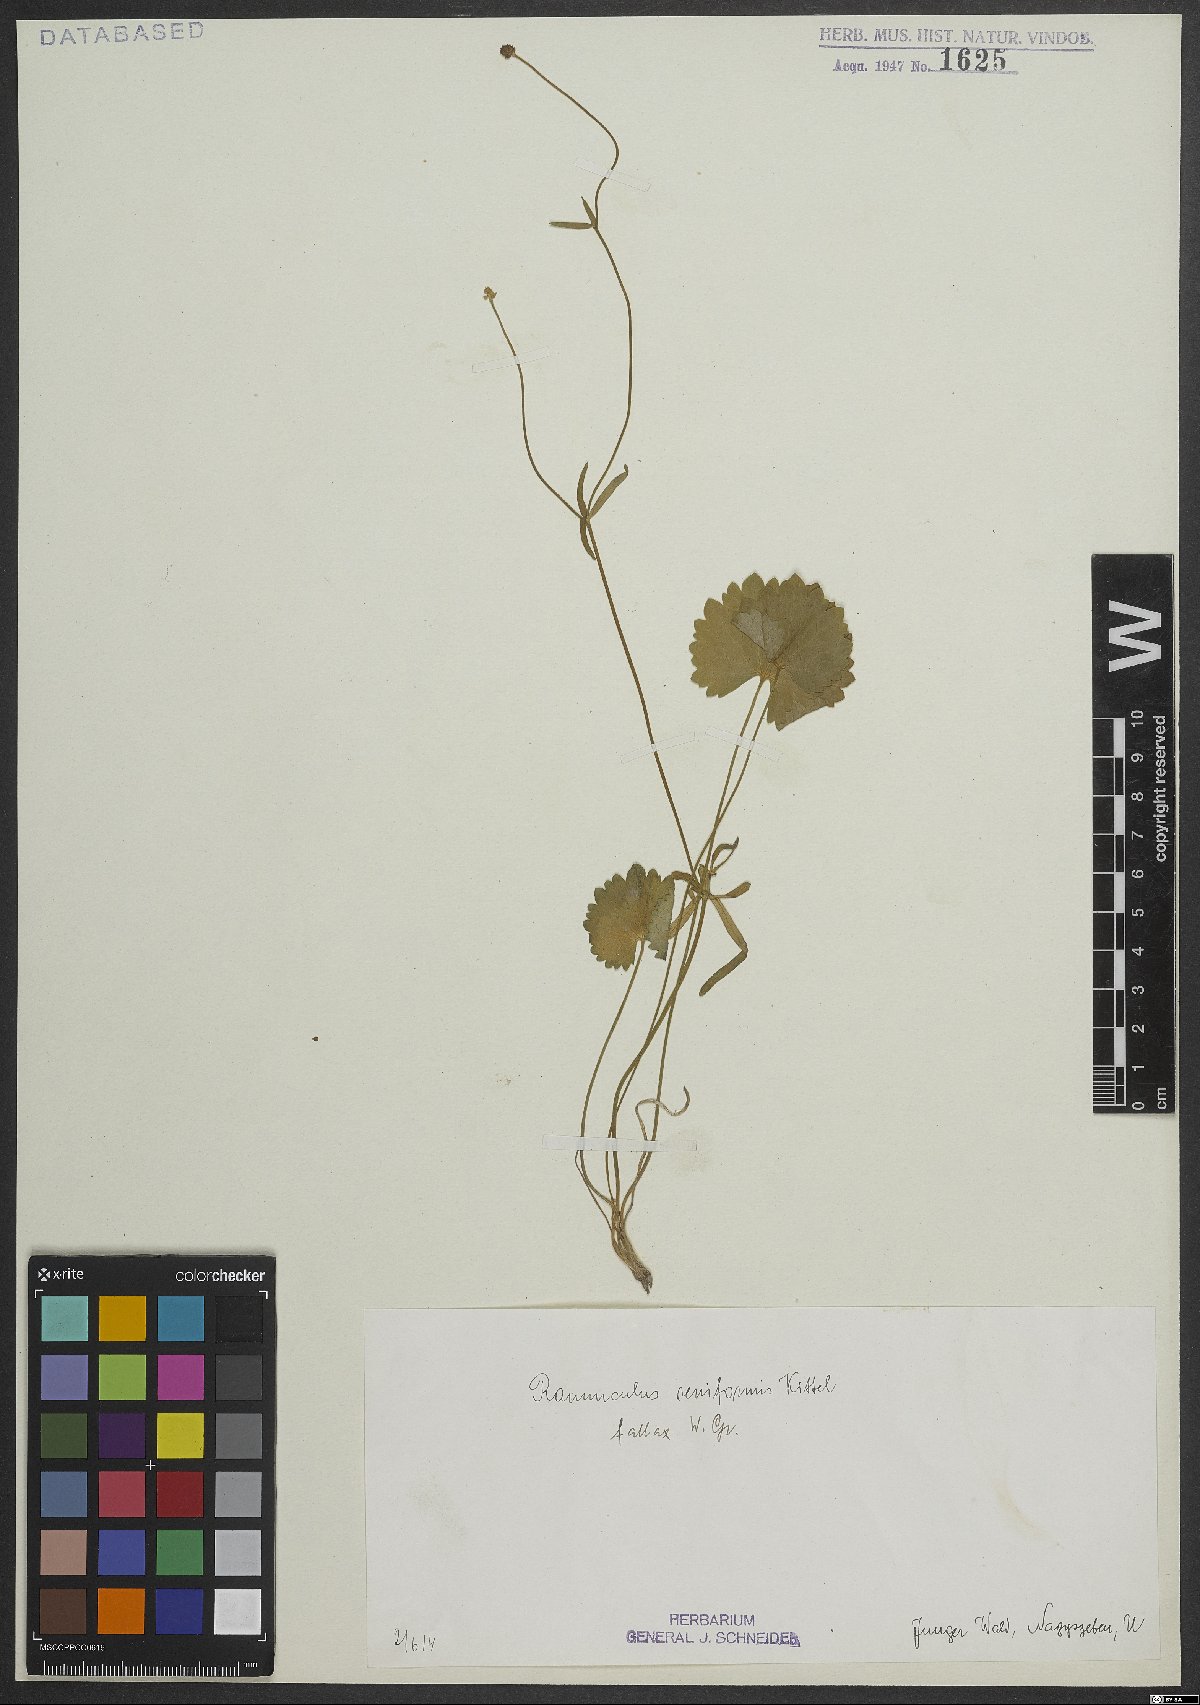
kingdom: Plantae
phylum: Tracheophyta
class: Magnoliopsida
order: Ranunculales
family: Ranunculaceae
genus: Ranunculus
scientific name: Ranunculus
